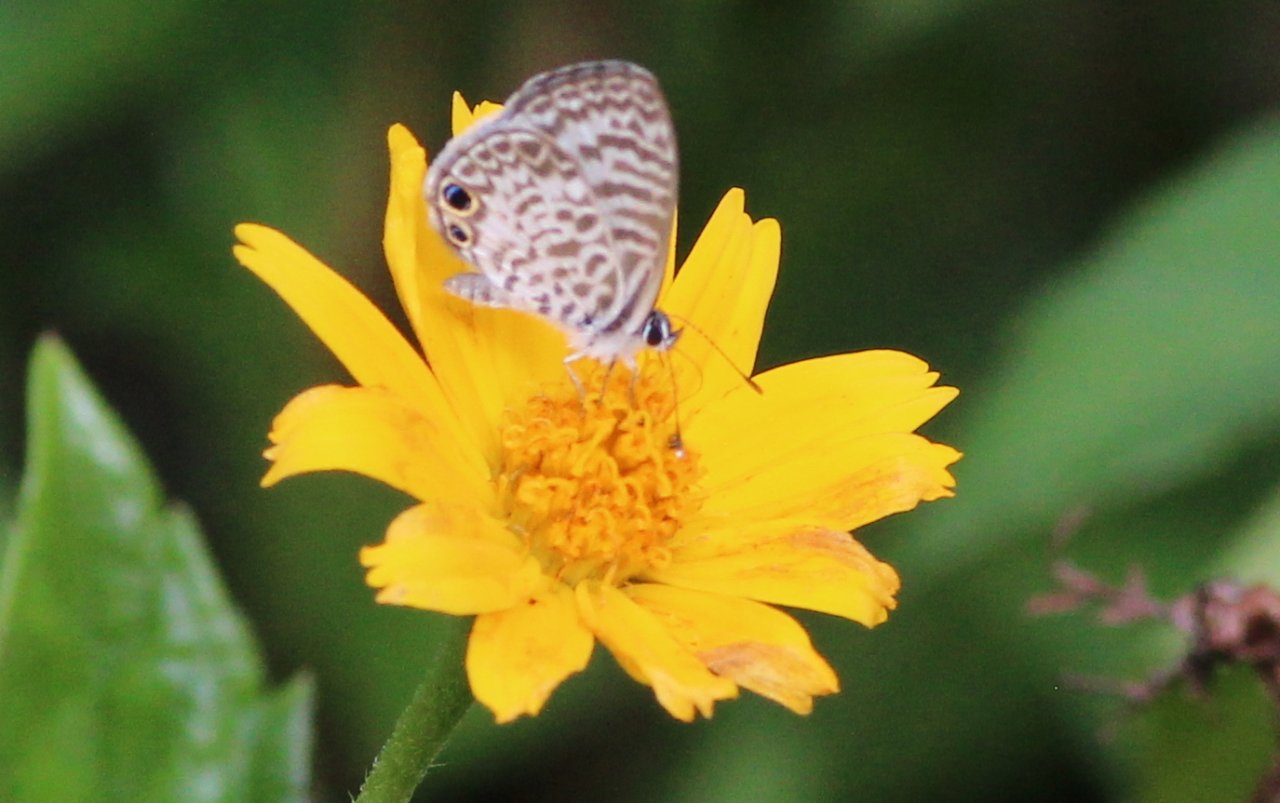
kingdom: Animalia
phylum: Arthropoda
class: Insecta
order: Lepidoptera
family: Lycaenidae
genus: Leptotes
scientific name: Leptotes cassius
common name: Cassius Blue
